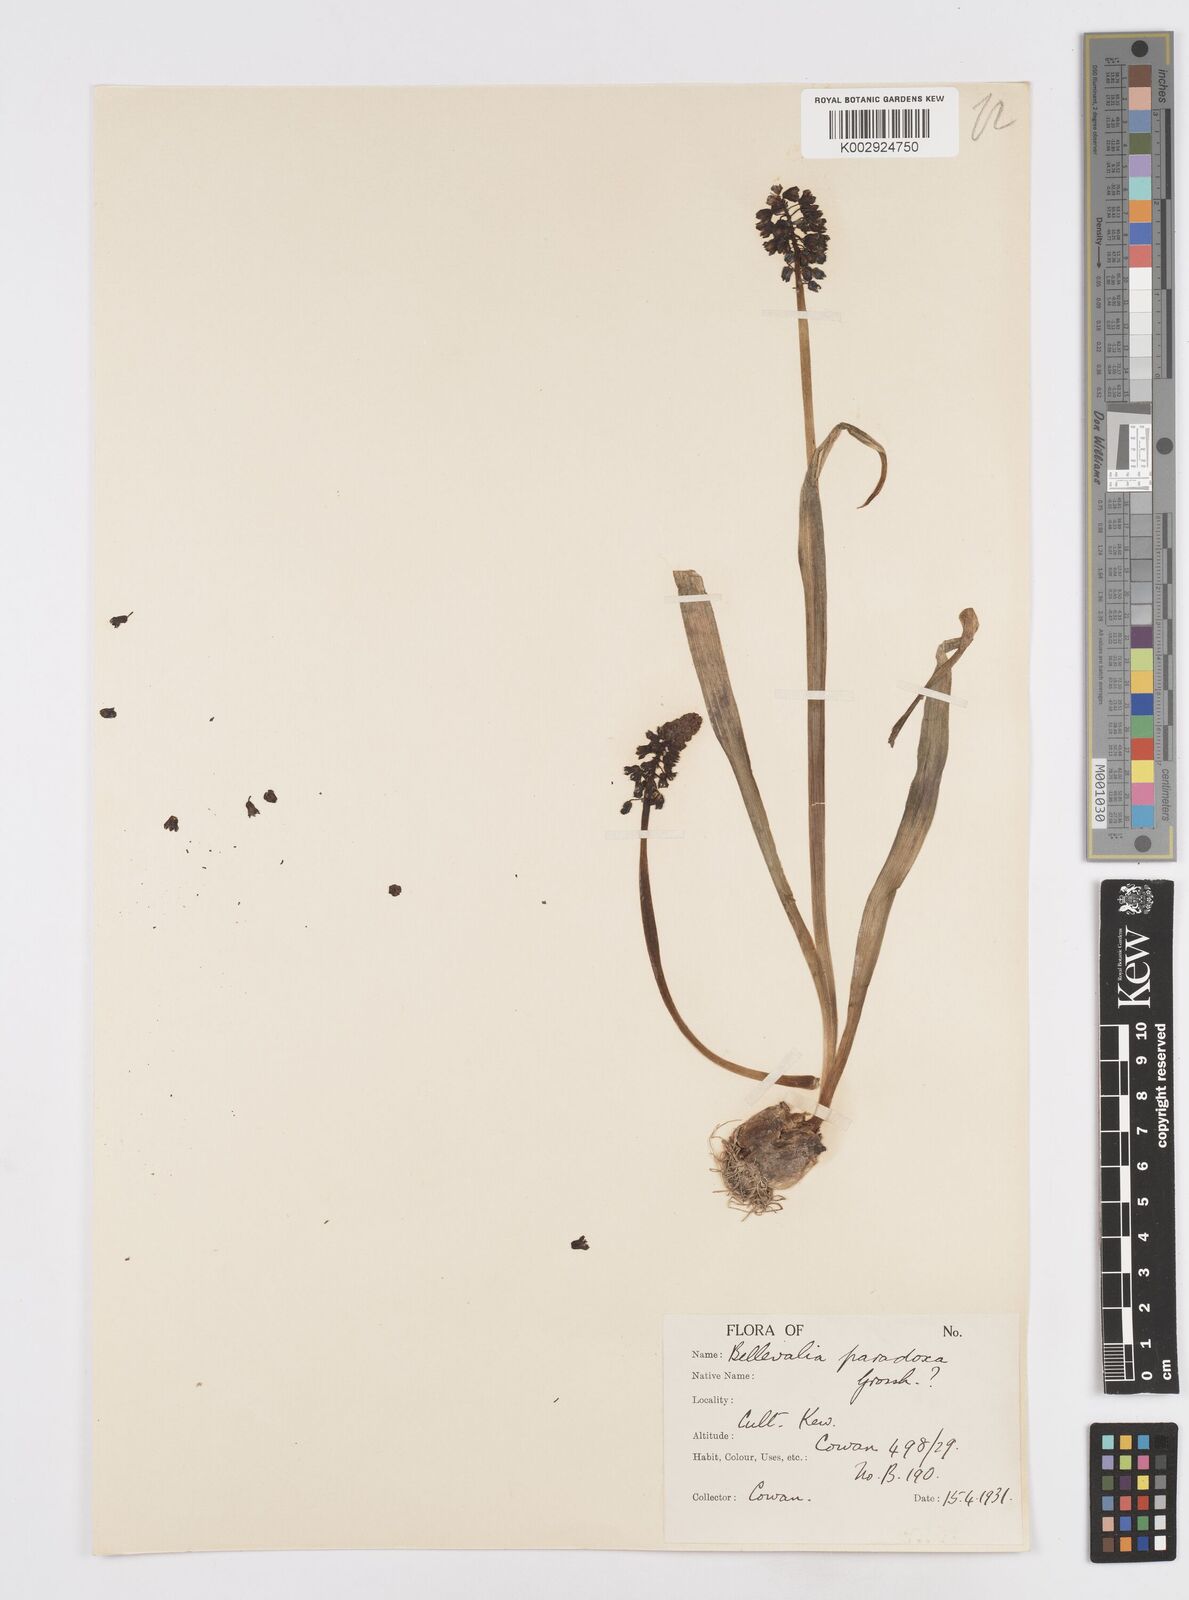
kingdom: Plantae
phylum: Tracheophyta
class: Liliopsida
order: Asparagales
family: Asparagaceae
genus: Bellevalia
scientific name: Bellevalia paradoxa
